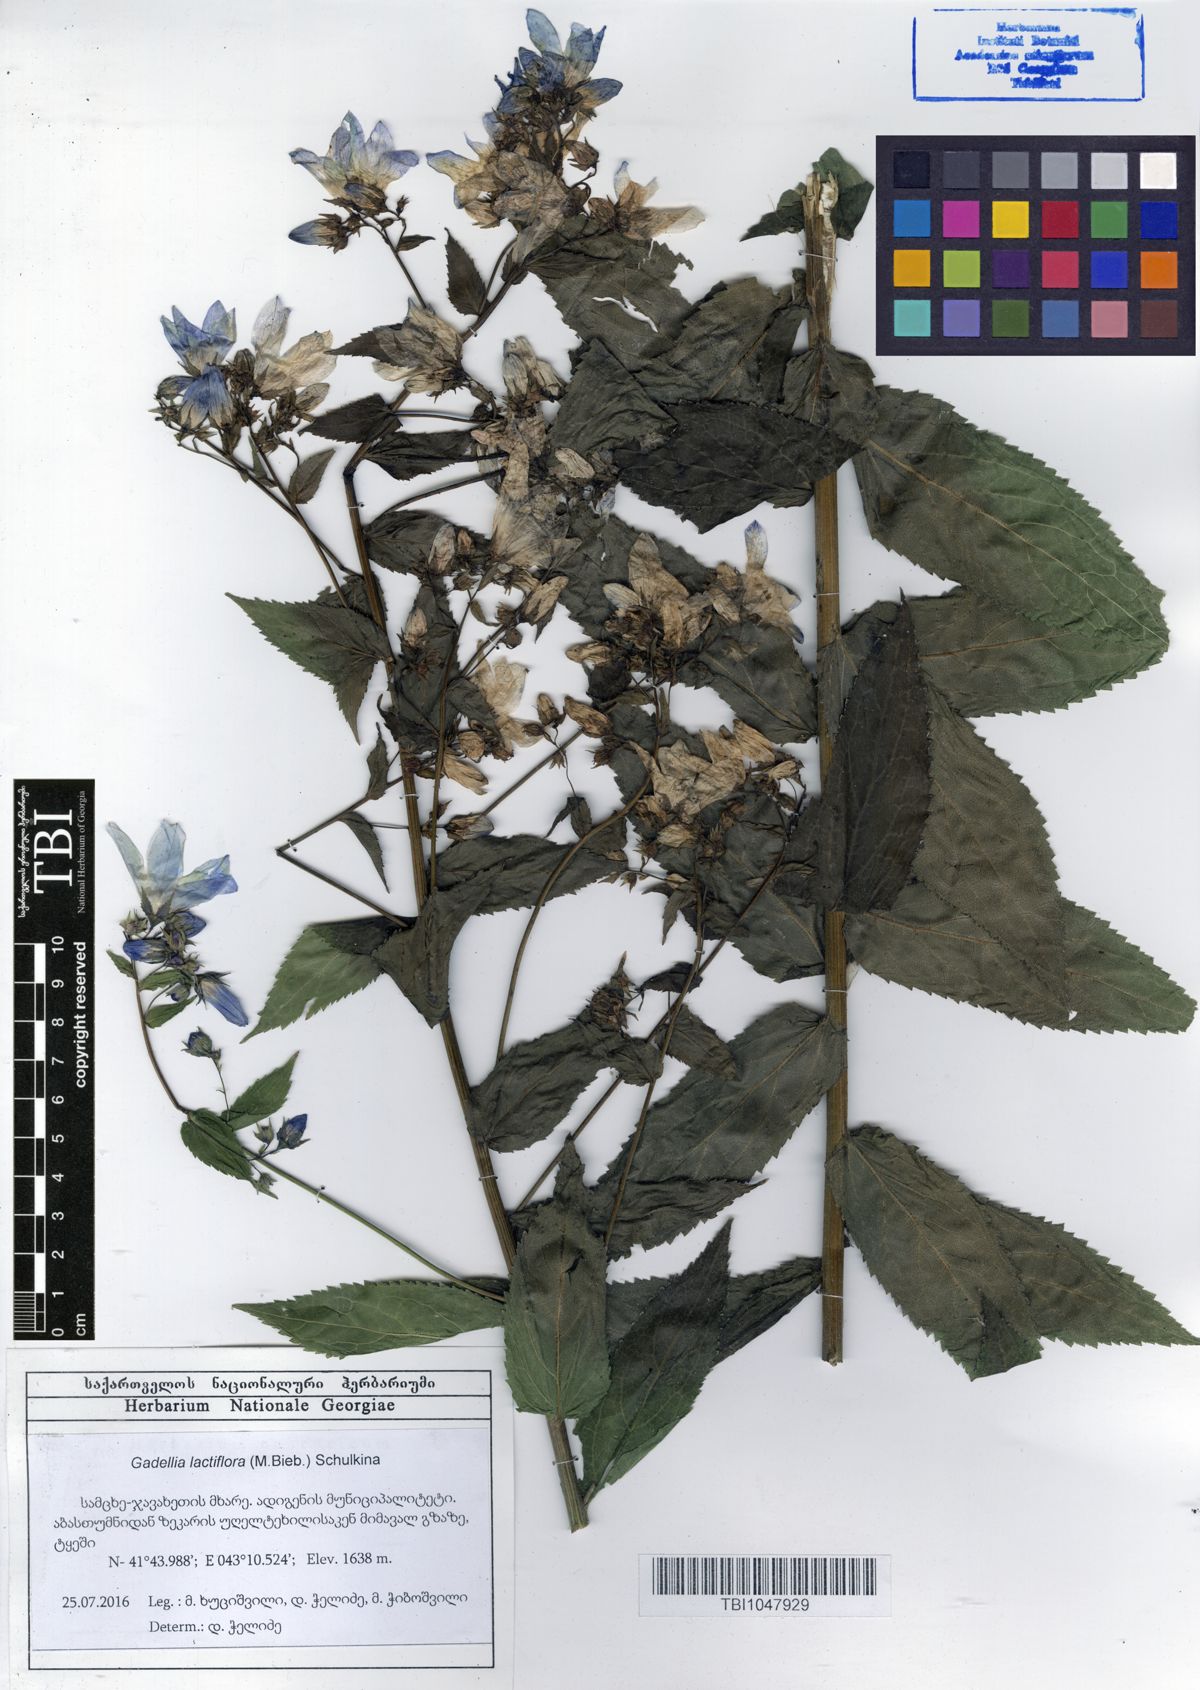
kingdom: Plantae
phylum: Tracheophyta
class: Magnoliopsida
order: Asterales
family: Campanulaceae
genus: Campanula
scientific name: Campanula lactiflora
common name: Milky bellflower
